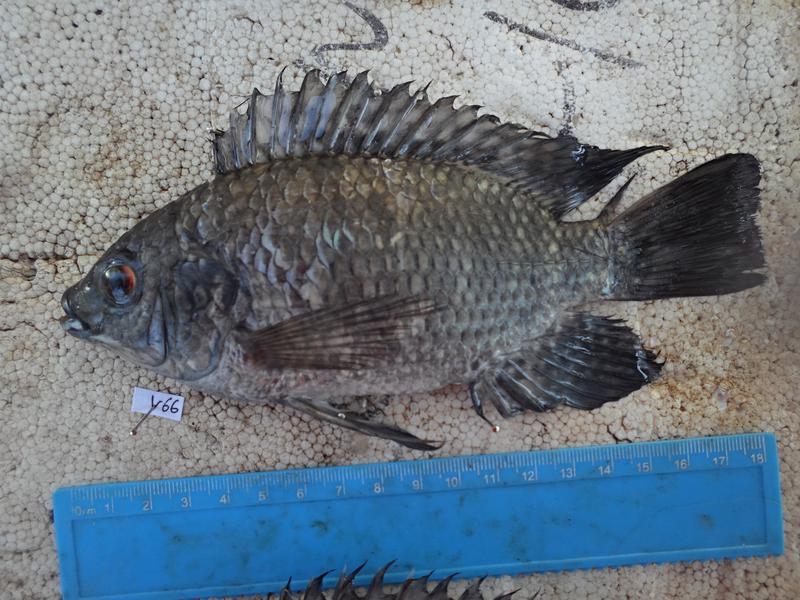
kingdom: Animalia
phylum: Chordata
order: Perciformes
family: Cichlidae
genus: Oreochromis
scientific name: Oreochromis leucostictus
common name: Blue spotted tilapia
